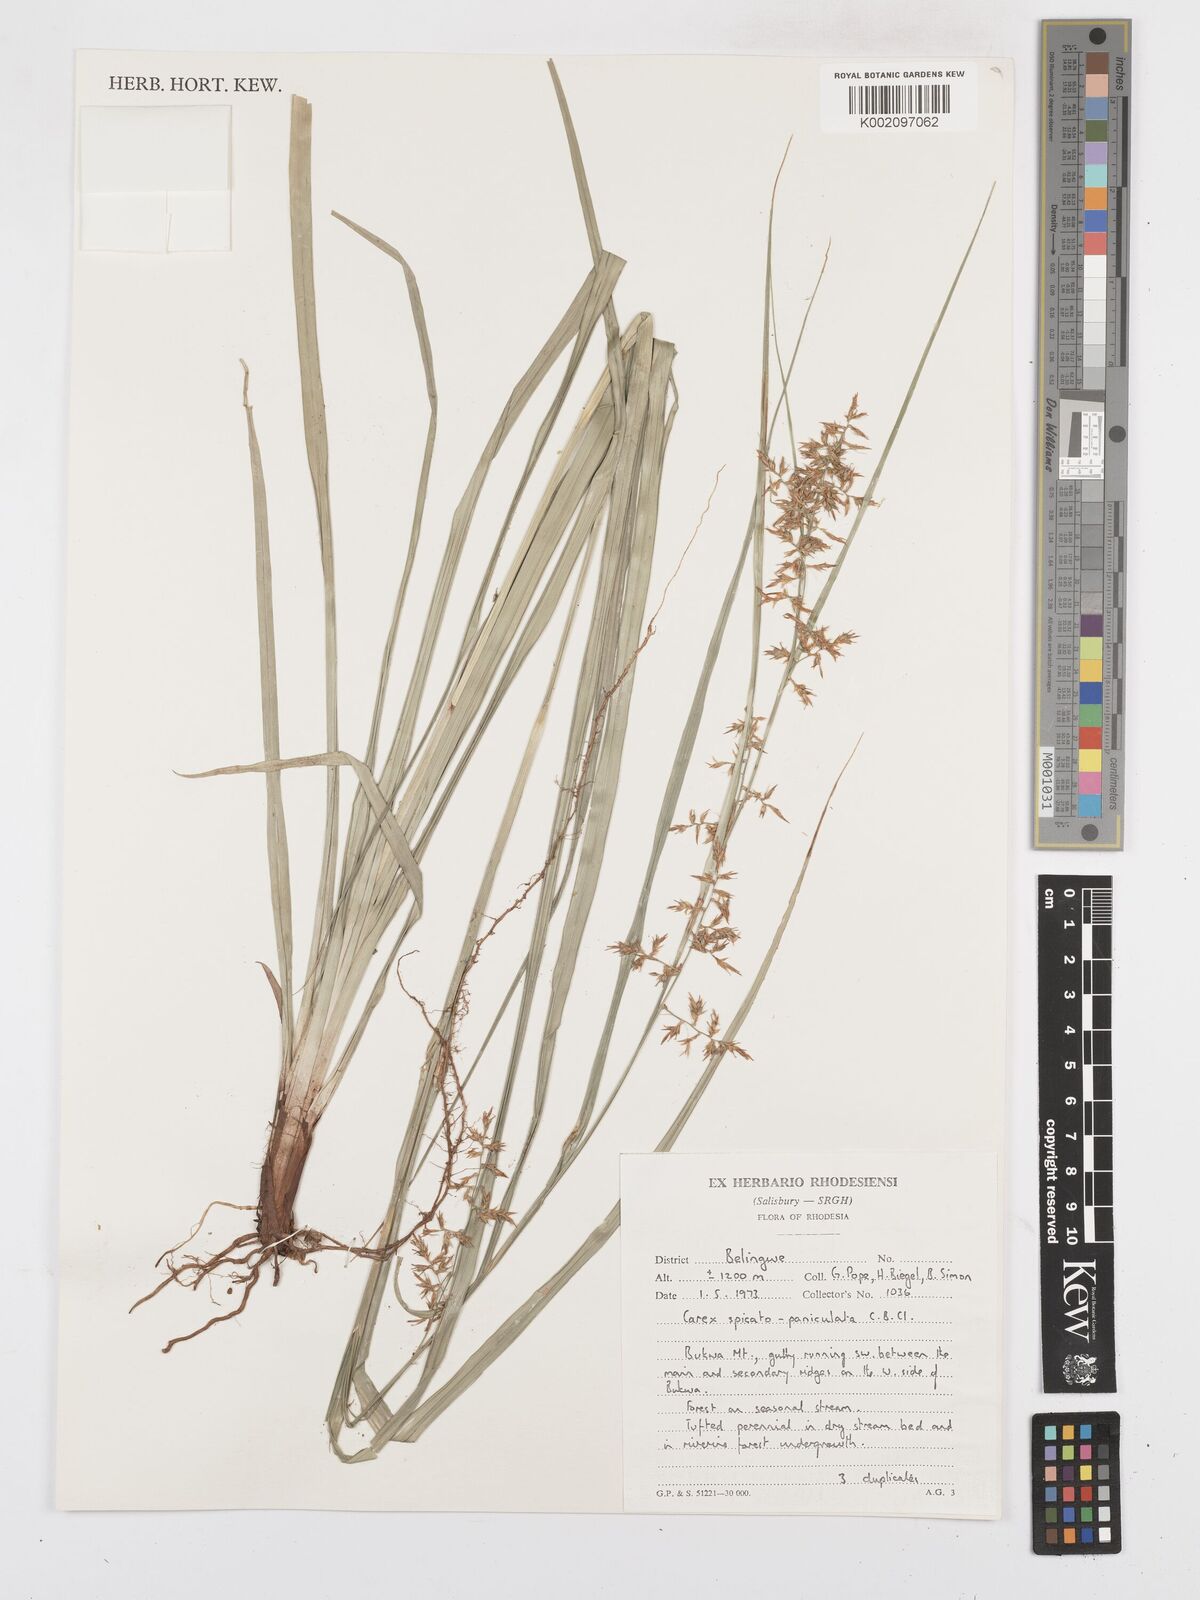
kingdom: Plantae
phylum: Tracheophyta
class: Liliopsida
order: Poales
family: Cyperaceae
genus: Carex
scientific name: Carex spicatopaniculata
